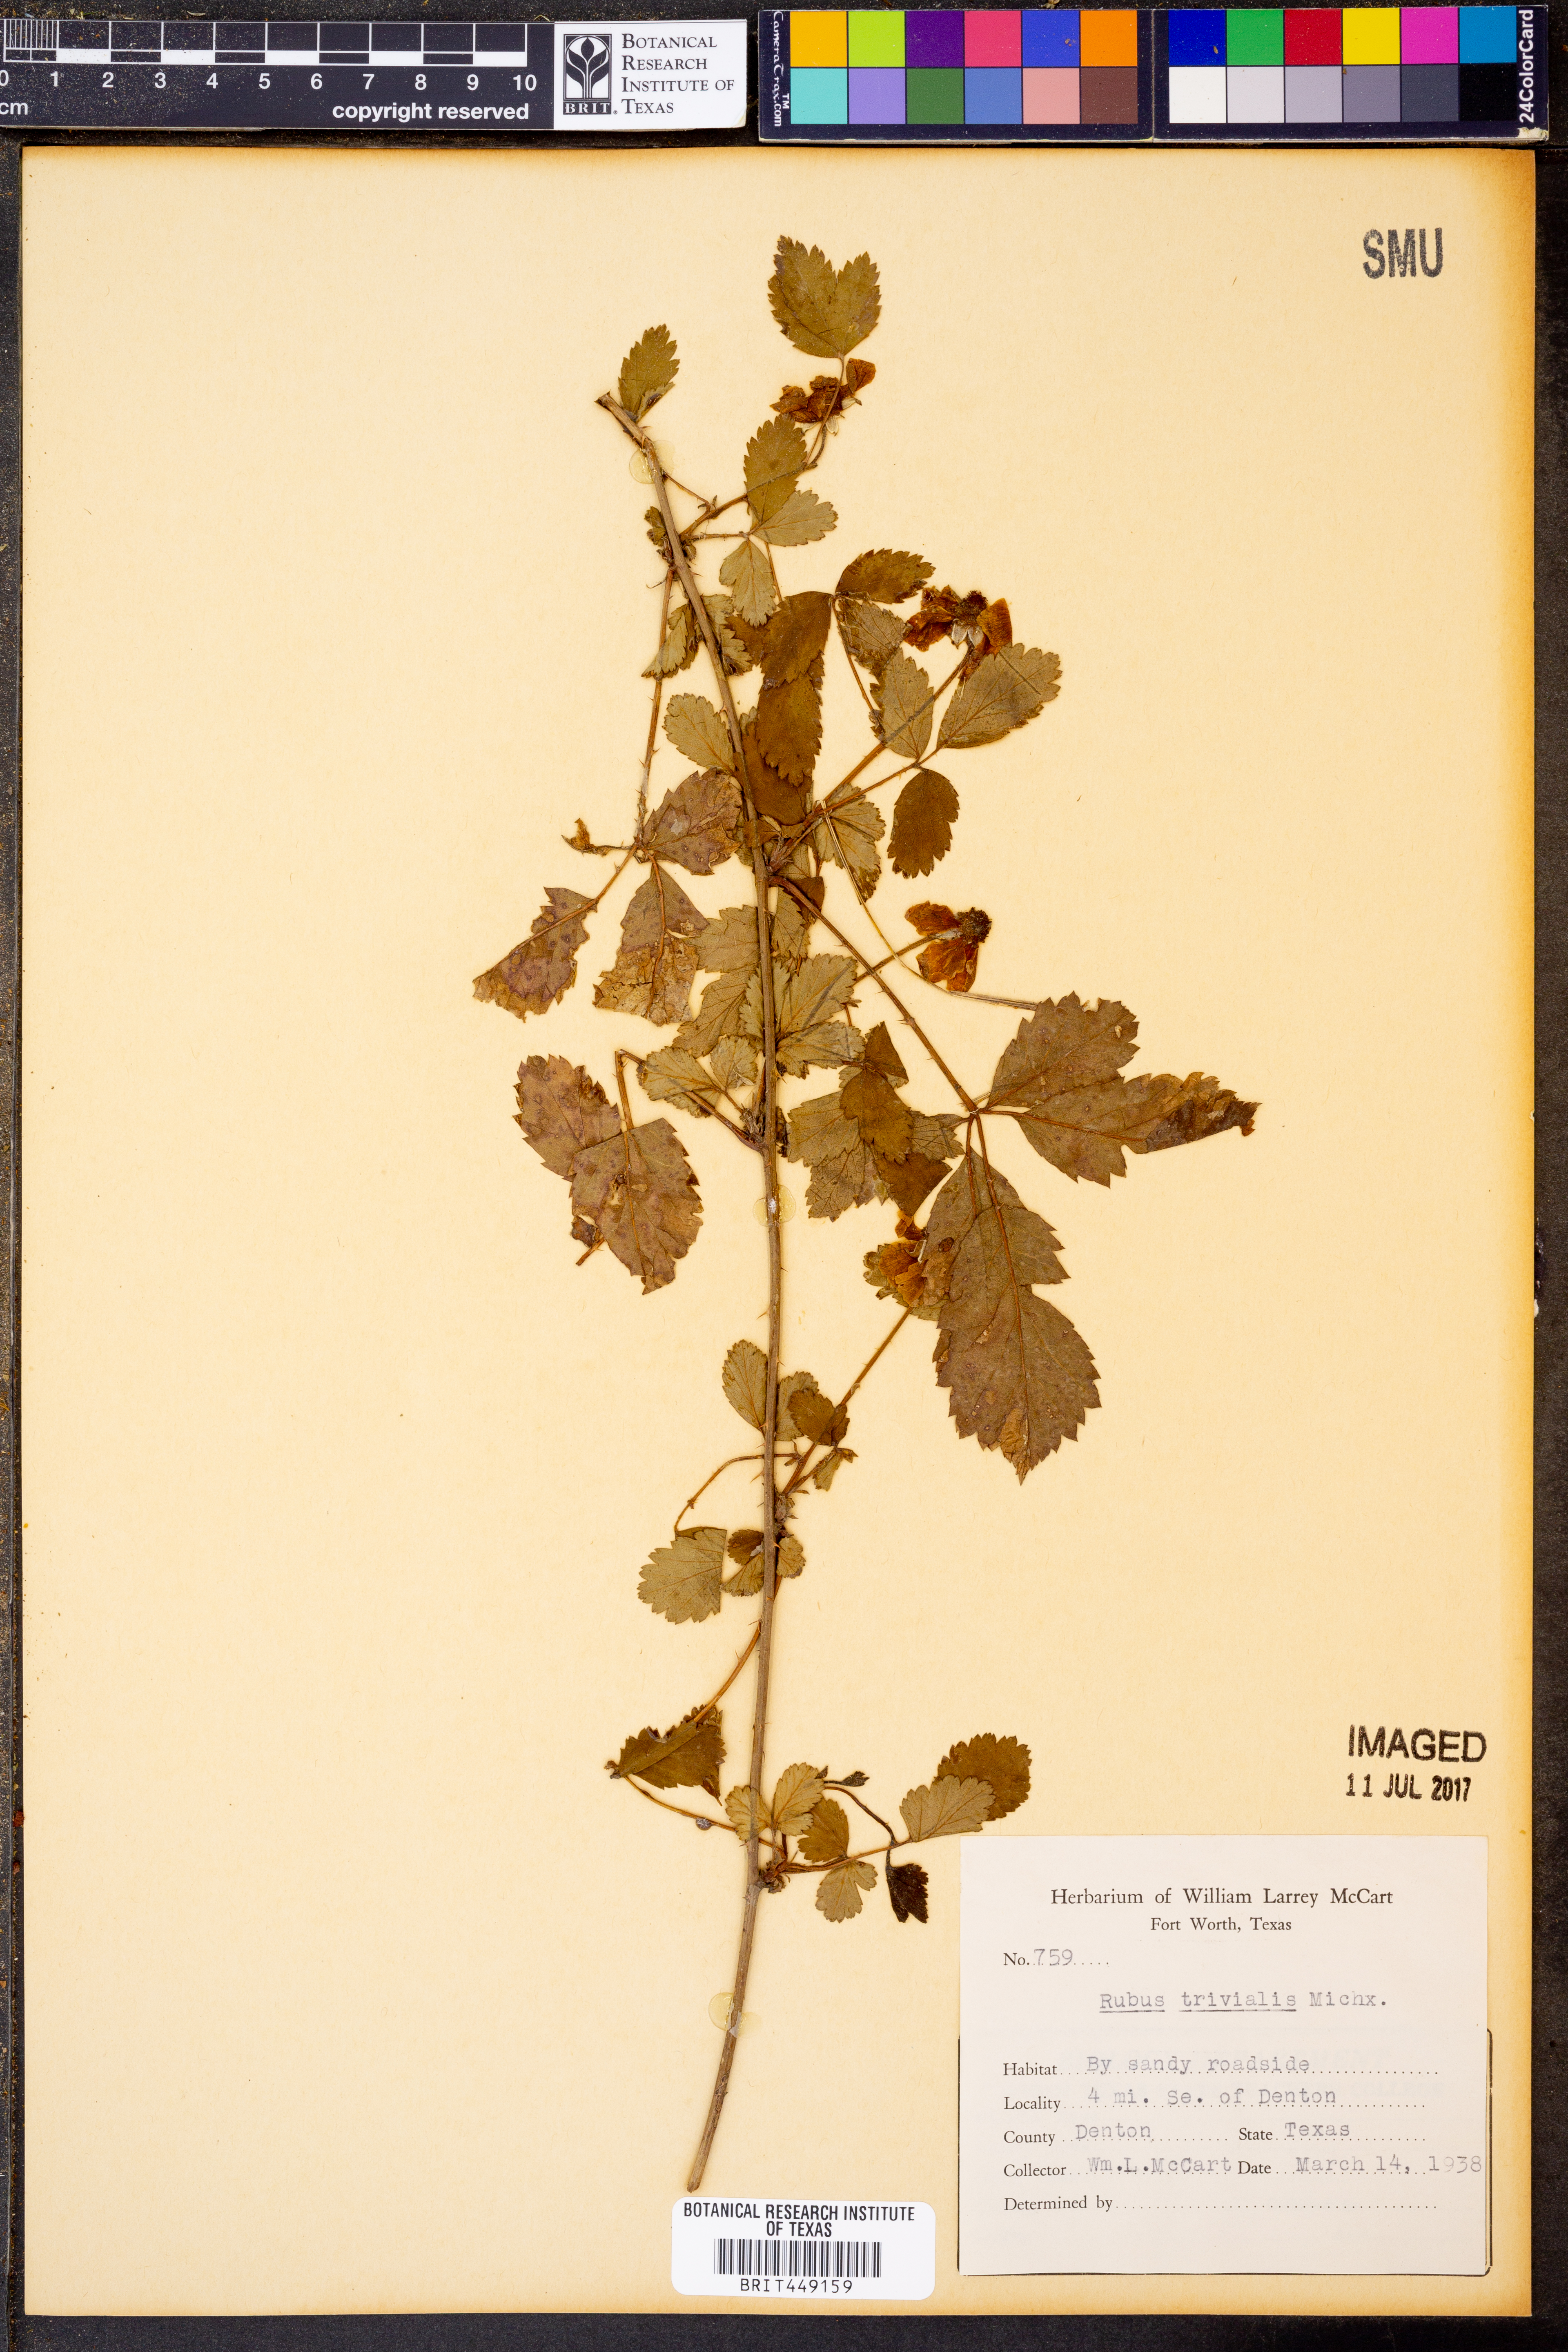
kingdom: Plantae
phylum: Tracheophyta
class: Magnoliopsida
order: Rosales
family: Rosaceae
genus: Rubus
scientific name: Rubus trivialis
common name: Southern dewberry
